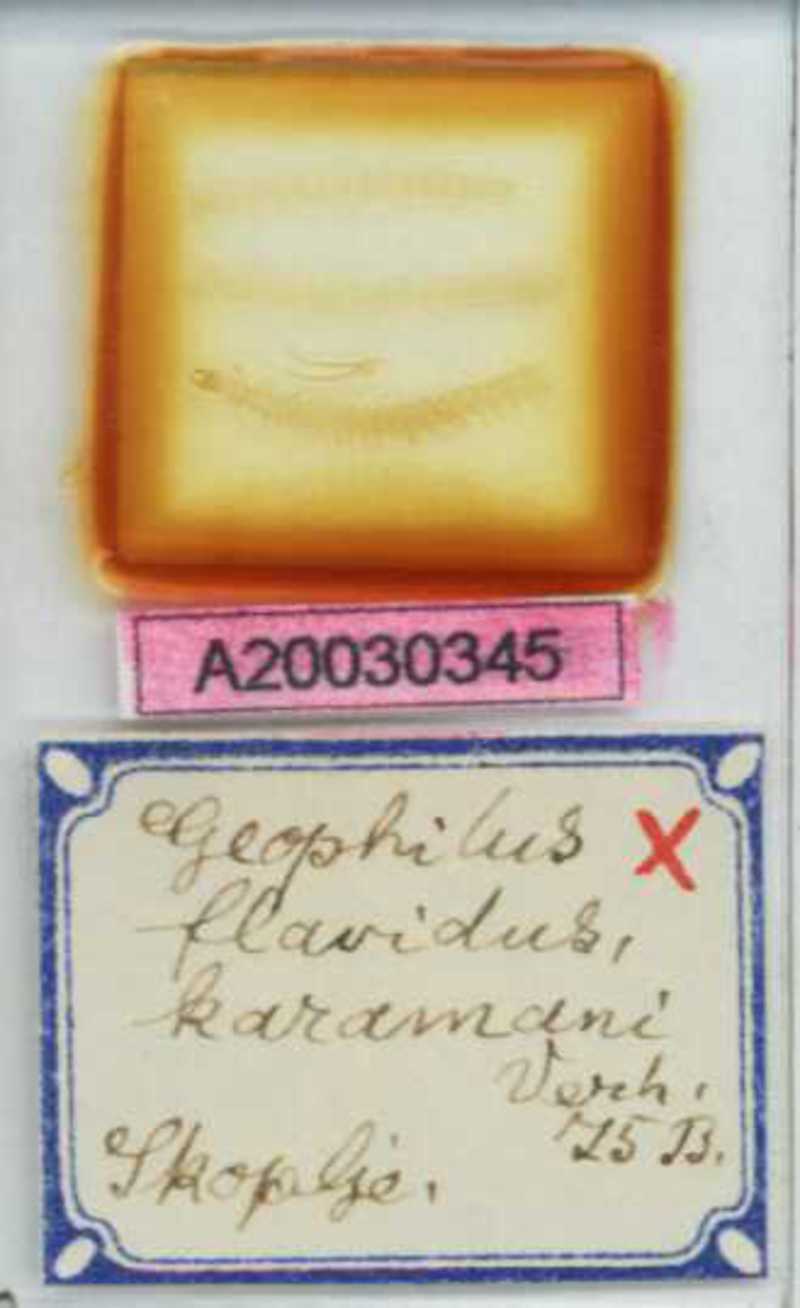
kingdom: Animalia
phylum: Arthropoda
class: Chilopoda
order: Geophilomorpha
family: Geophilidae
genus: Clinopodes
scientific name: Clinopodes flavidus
